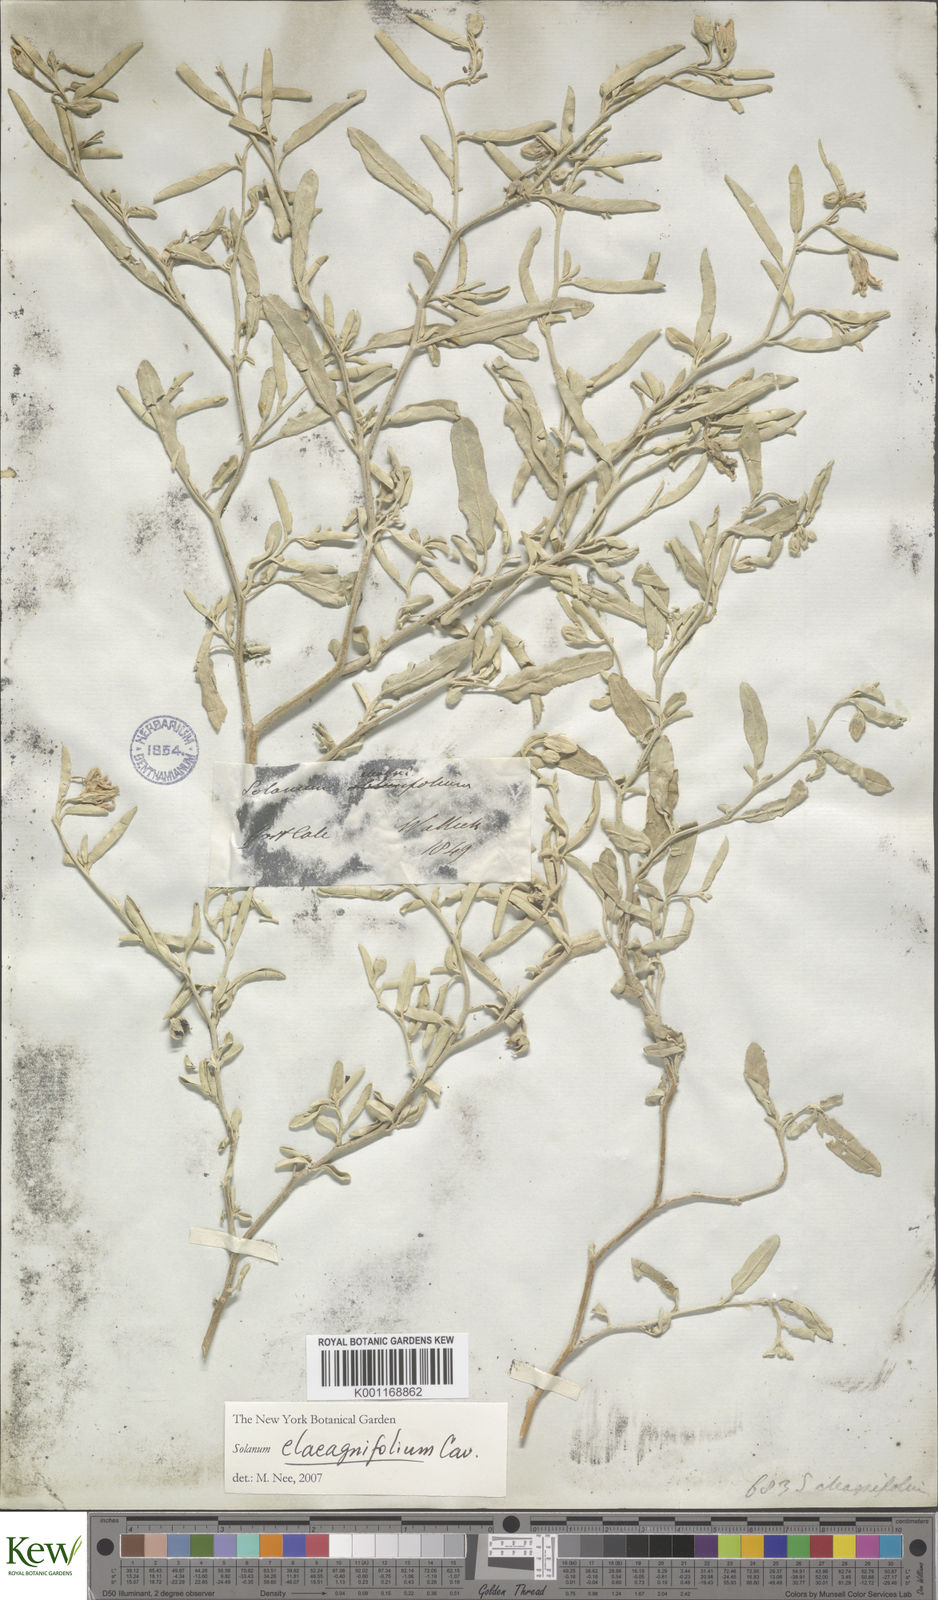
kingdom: Plantae
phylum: Tracheophyta
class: Magnoliopsida
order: Solanales
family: Solanaceae
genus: Solanum
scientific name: Solanum elaeagnifolium
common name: Silverleaf nightshade
